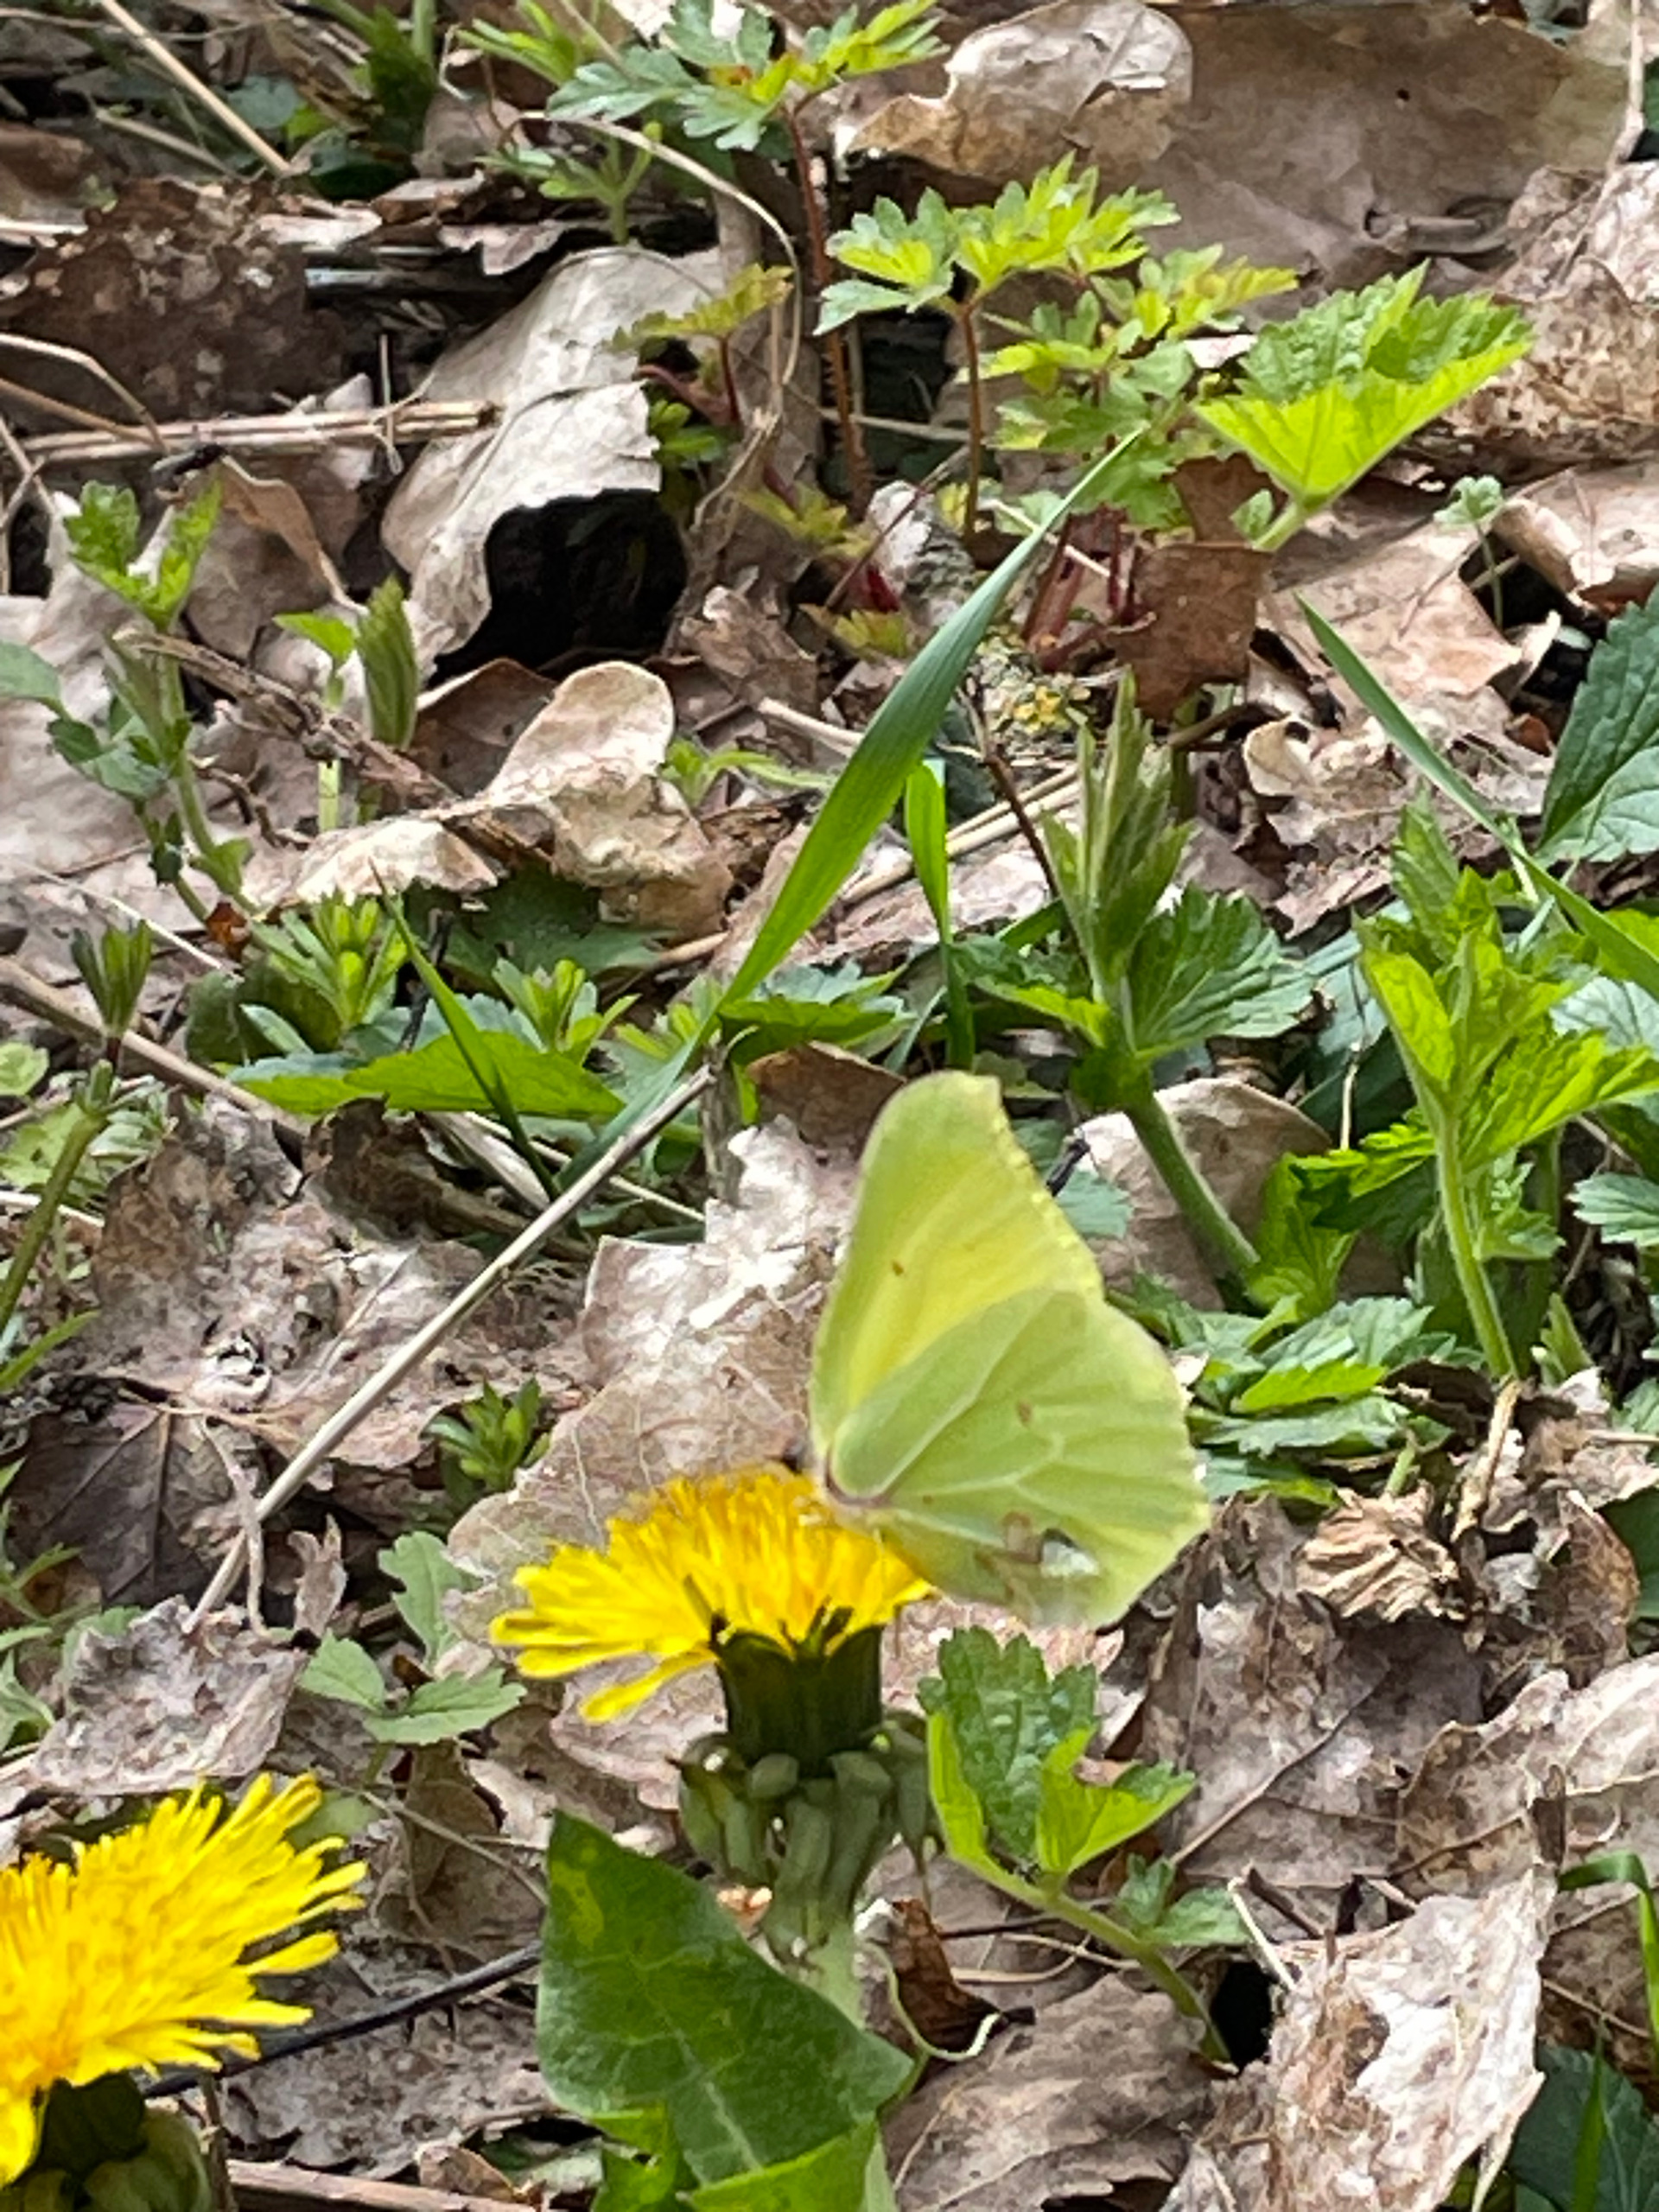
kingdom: Animalia
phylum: Arthropoda
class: Insecta
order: Lepidoptera
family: Pieridae
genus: Gonepteryx
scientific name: Gonepteryx rhamni
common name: Citronsommerfugl
